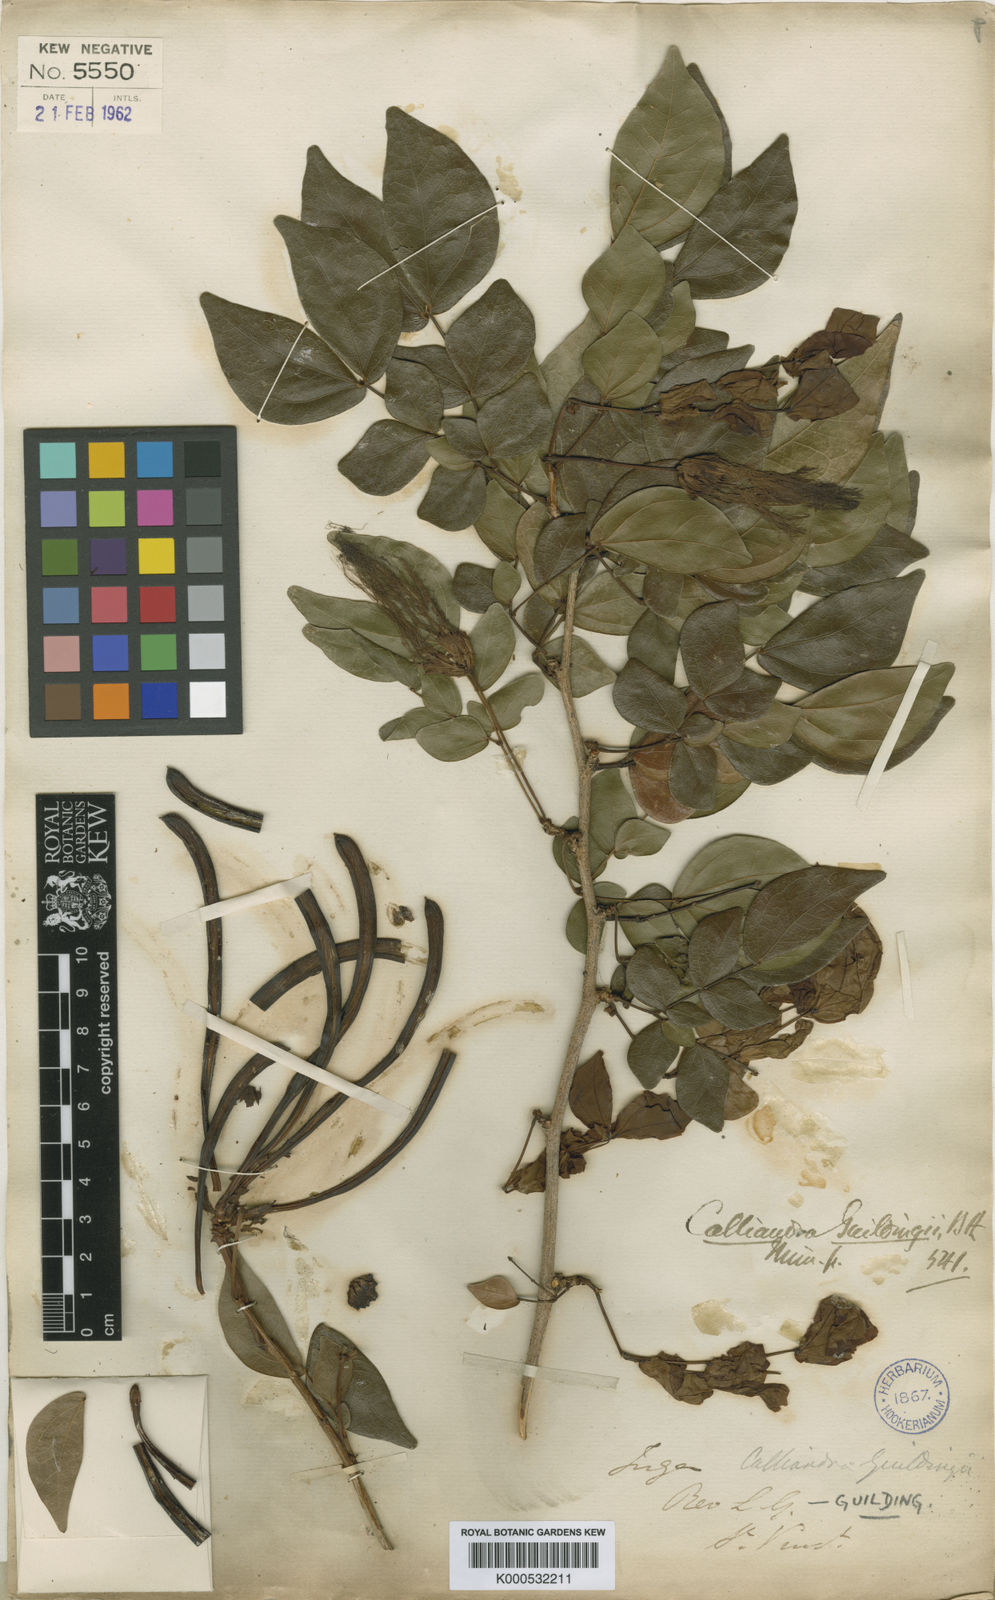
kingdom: Plantae
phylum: Tracheophyta
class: Magnoliopsida
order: Fabales
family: Fabaceae
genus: Calliandra
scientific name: Calliandra guildingii
